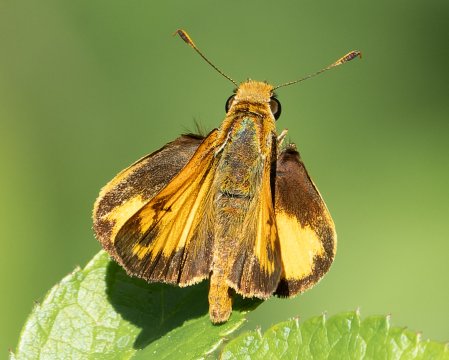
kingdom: Animalia
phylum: Arthropoda
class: Insecta
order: Lepidoptera
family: Hesperiidae
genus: Lon
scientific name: Lon zabulon
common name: Zabulon Skipper
